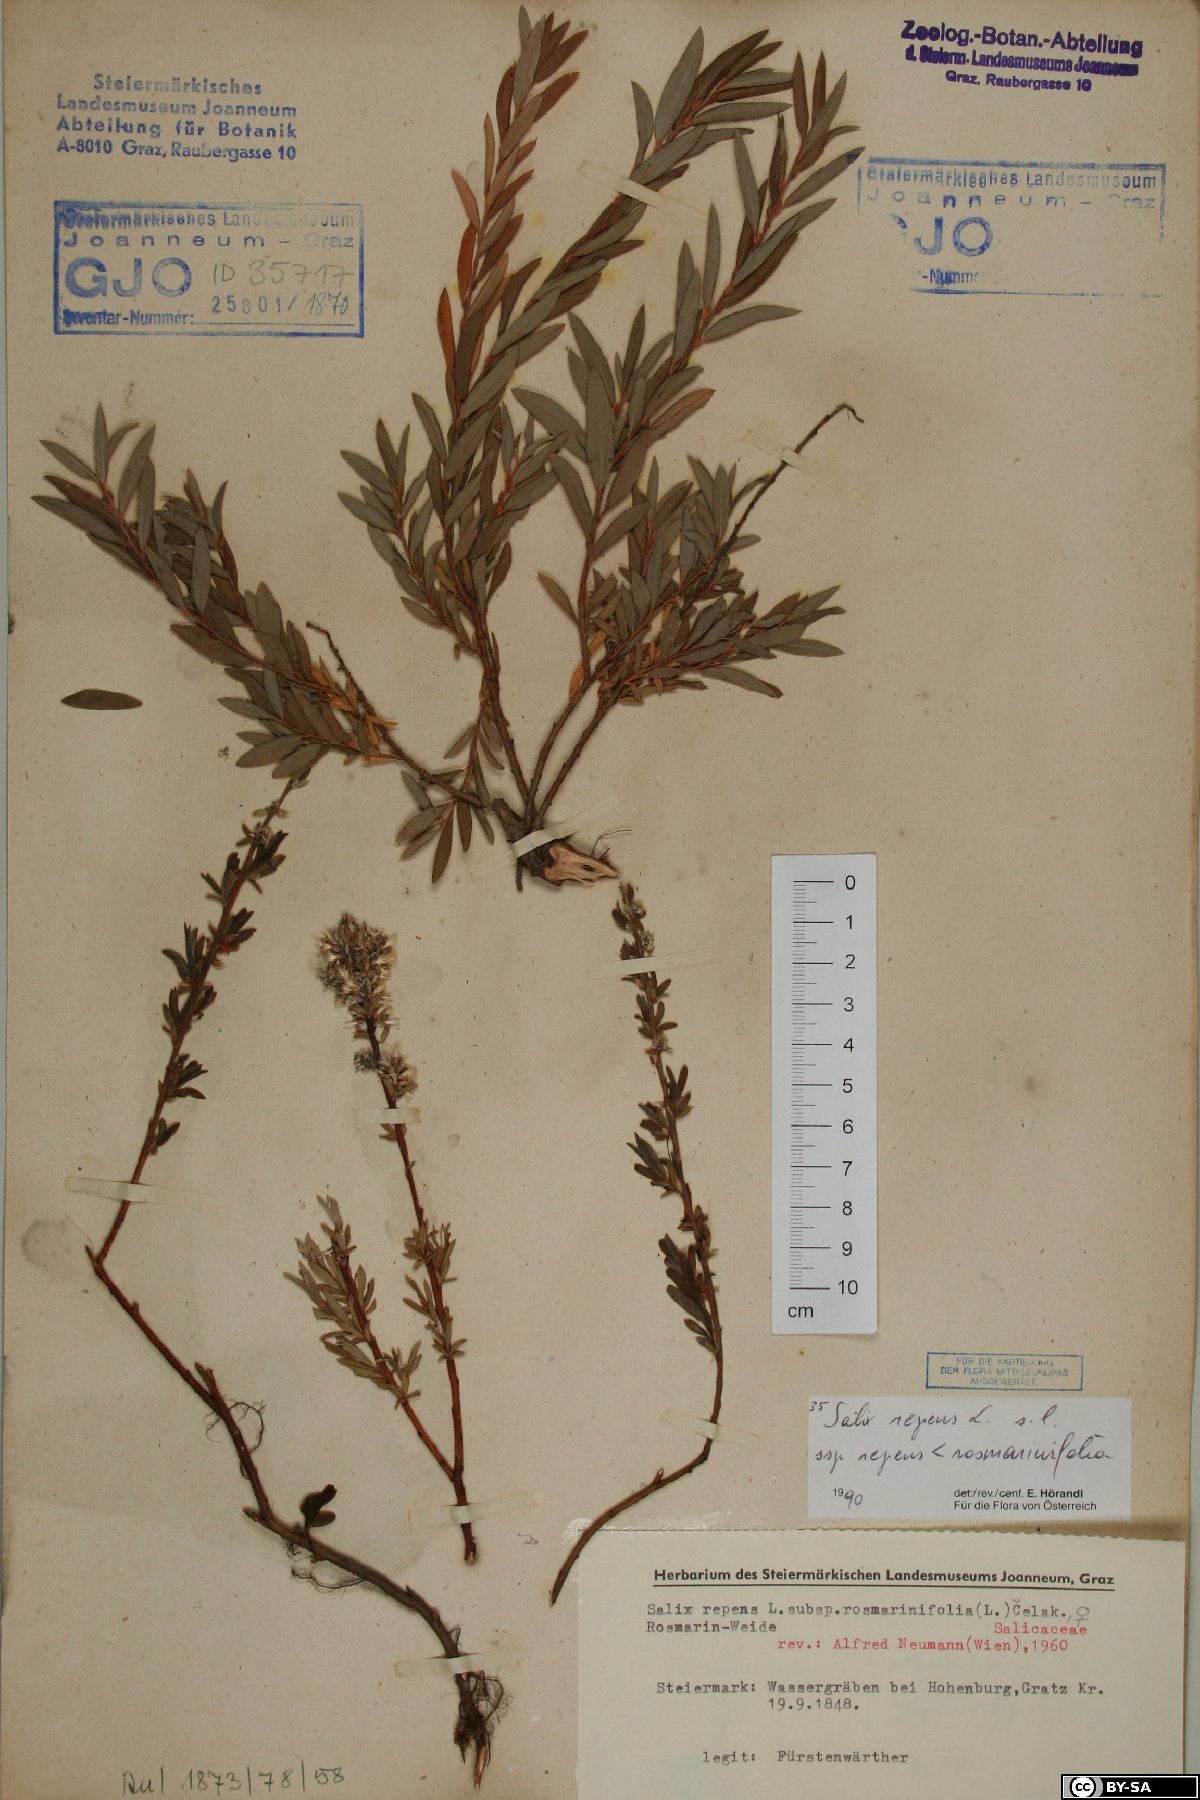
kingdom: Plantae
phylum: Tracheophyta
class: Magnoliopsida
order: Malpighiales
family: Salicaceae
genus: Salix
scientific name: Salix repens
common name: Creeping willow
